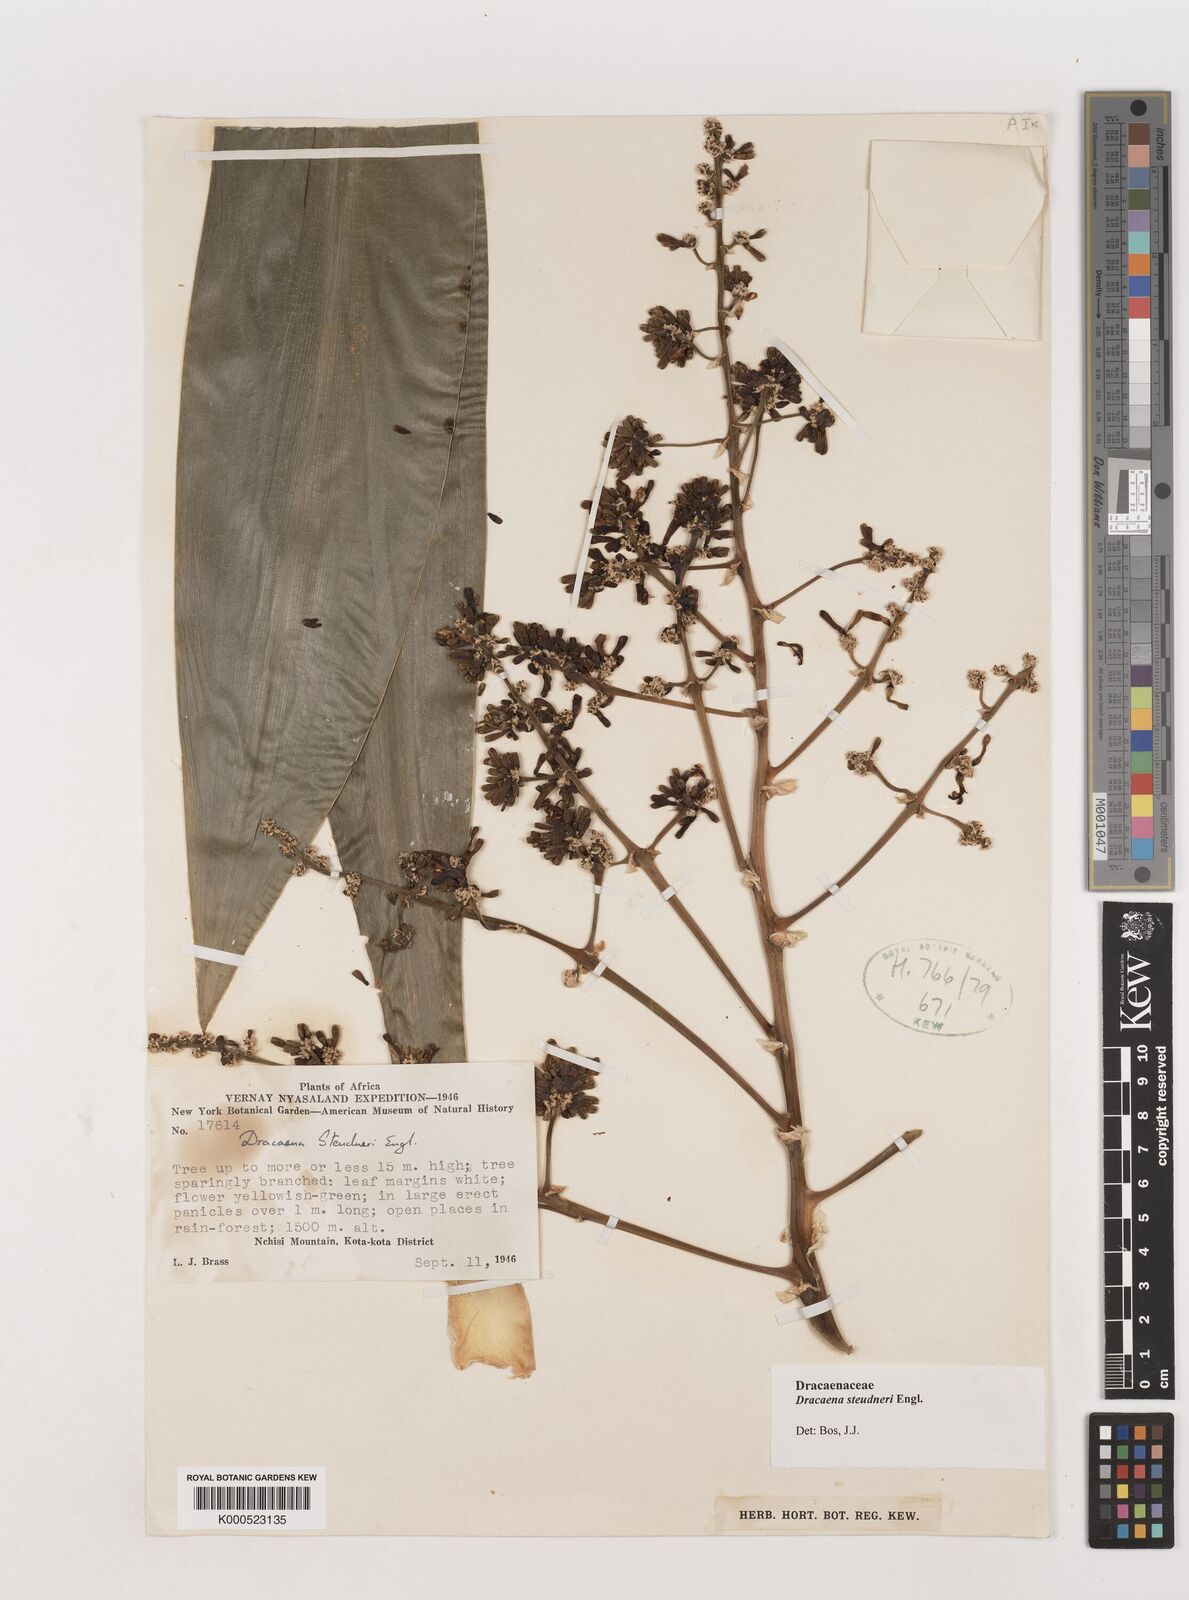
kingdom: Plantae
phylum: Tracheophyta
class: Liliopsida
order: Asparagales
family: Asparagaceae
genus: Dracaena
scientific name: Dracaena steudneri
